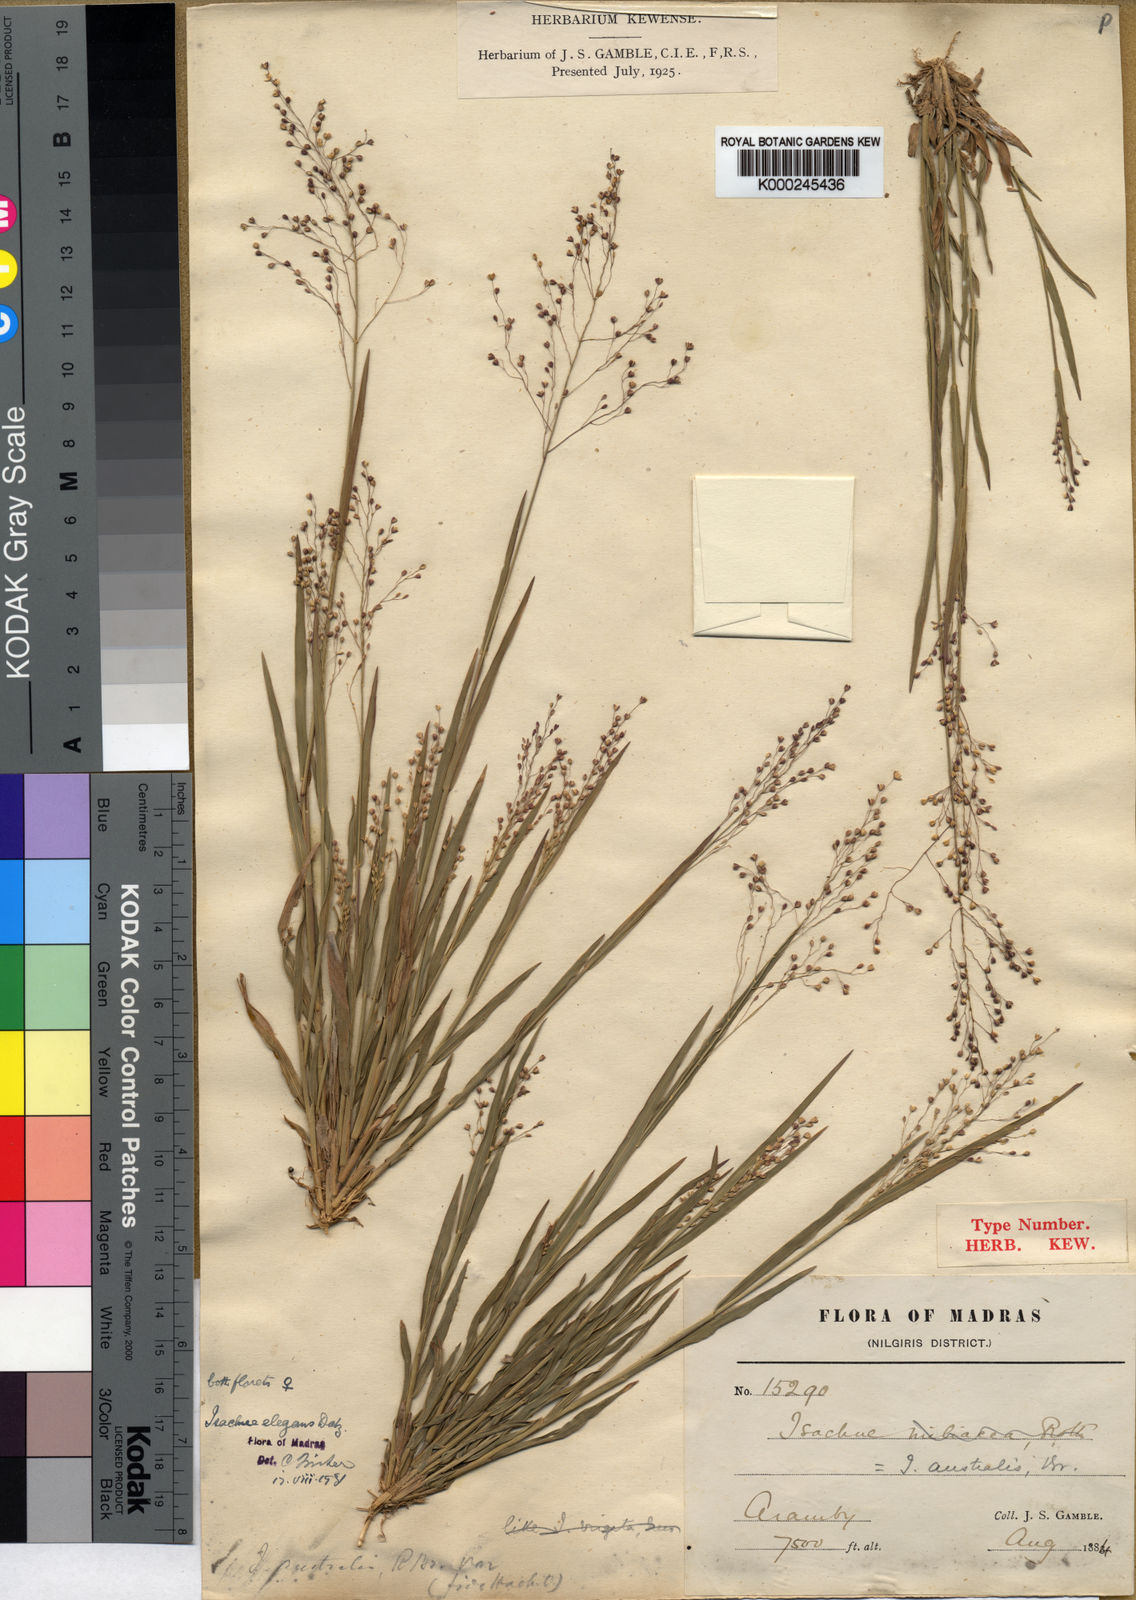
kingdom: Plantae
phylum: Tracheophyta
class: Liliopsida
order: Poales
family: Poaceae
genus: Isachne
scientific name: Isachne deccanensis
